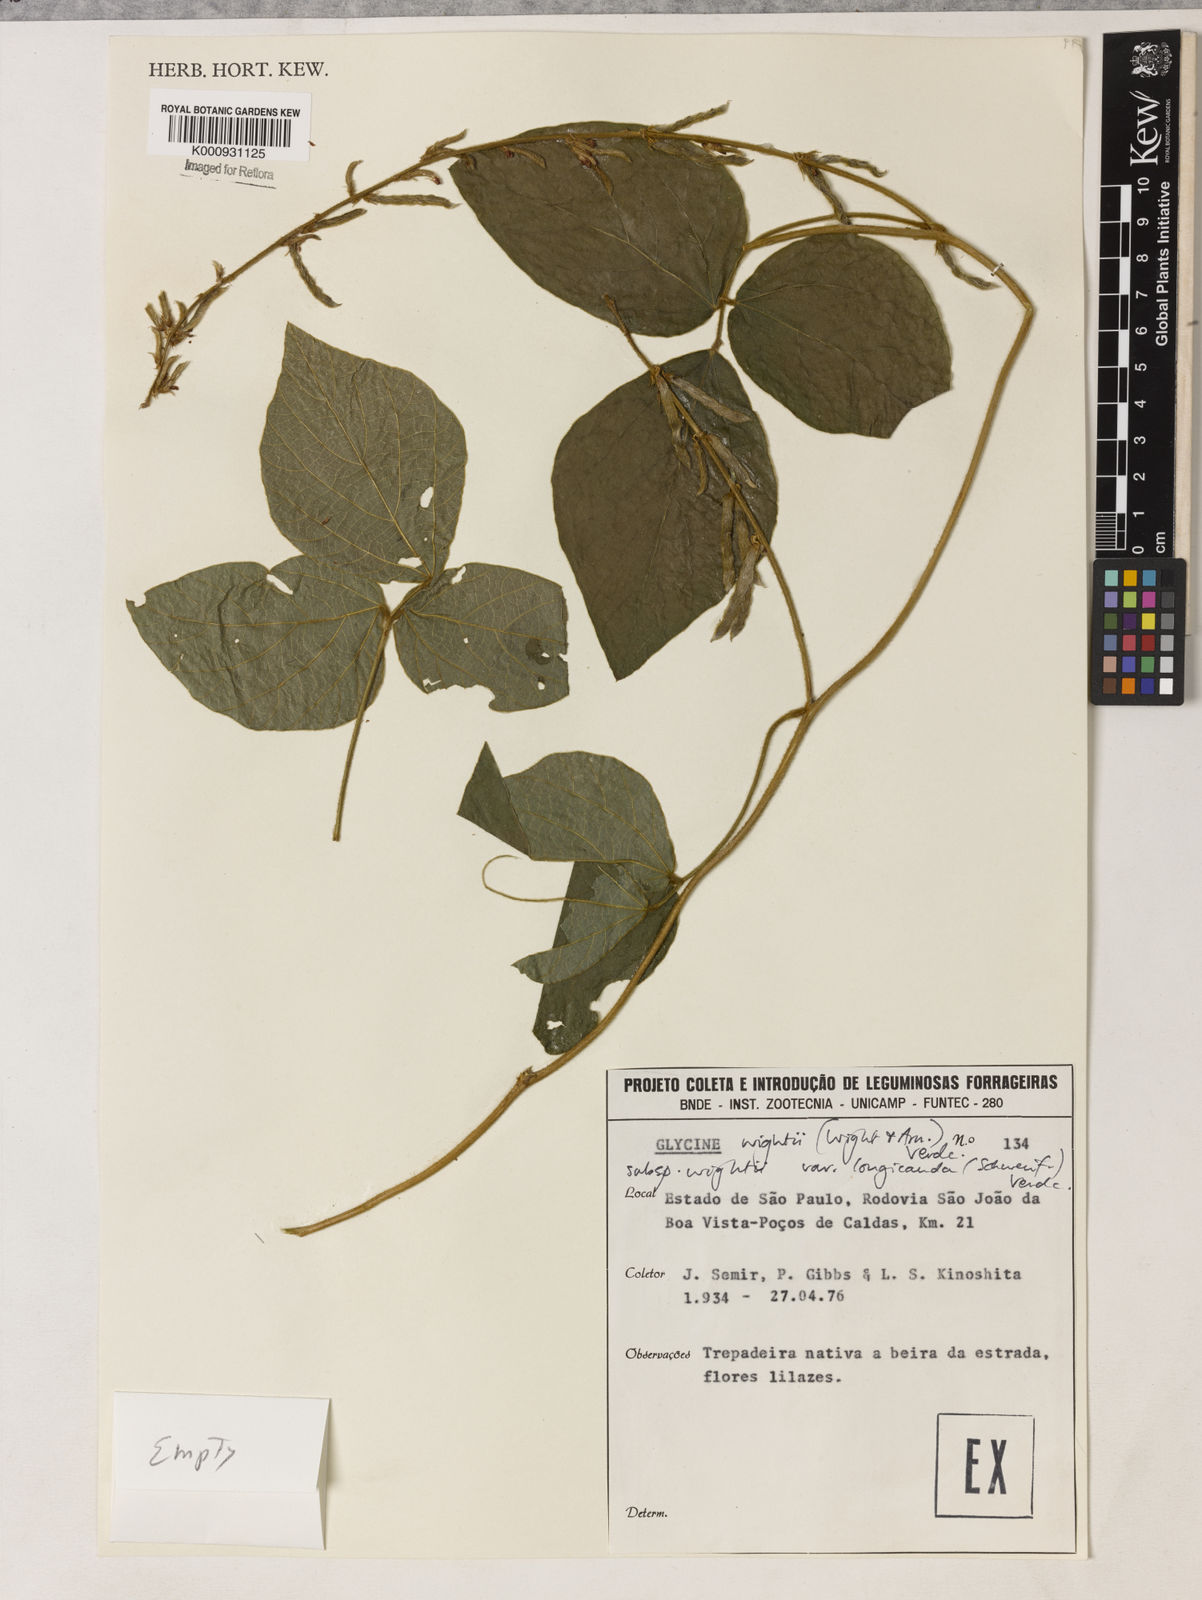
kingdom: Plantae
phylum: Tracheophyta
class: Magnoliopsida
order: Fabales
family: Fabaceae
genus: Neonotonia
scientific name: Neonotonia wightii
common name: Perennial soybean
